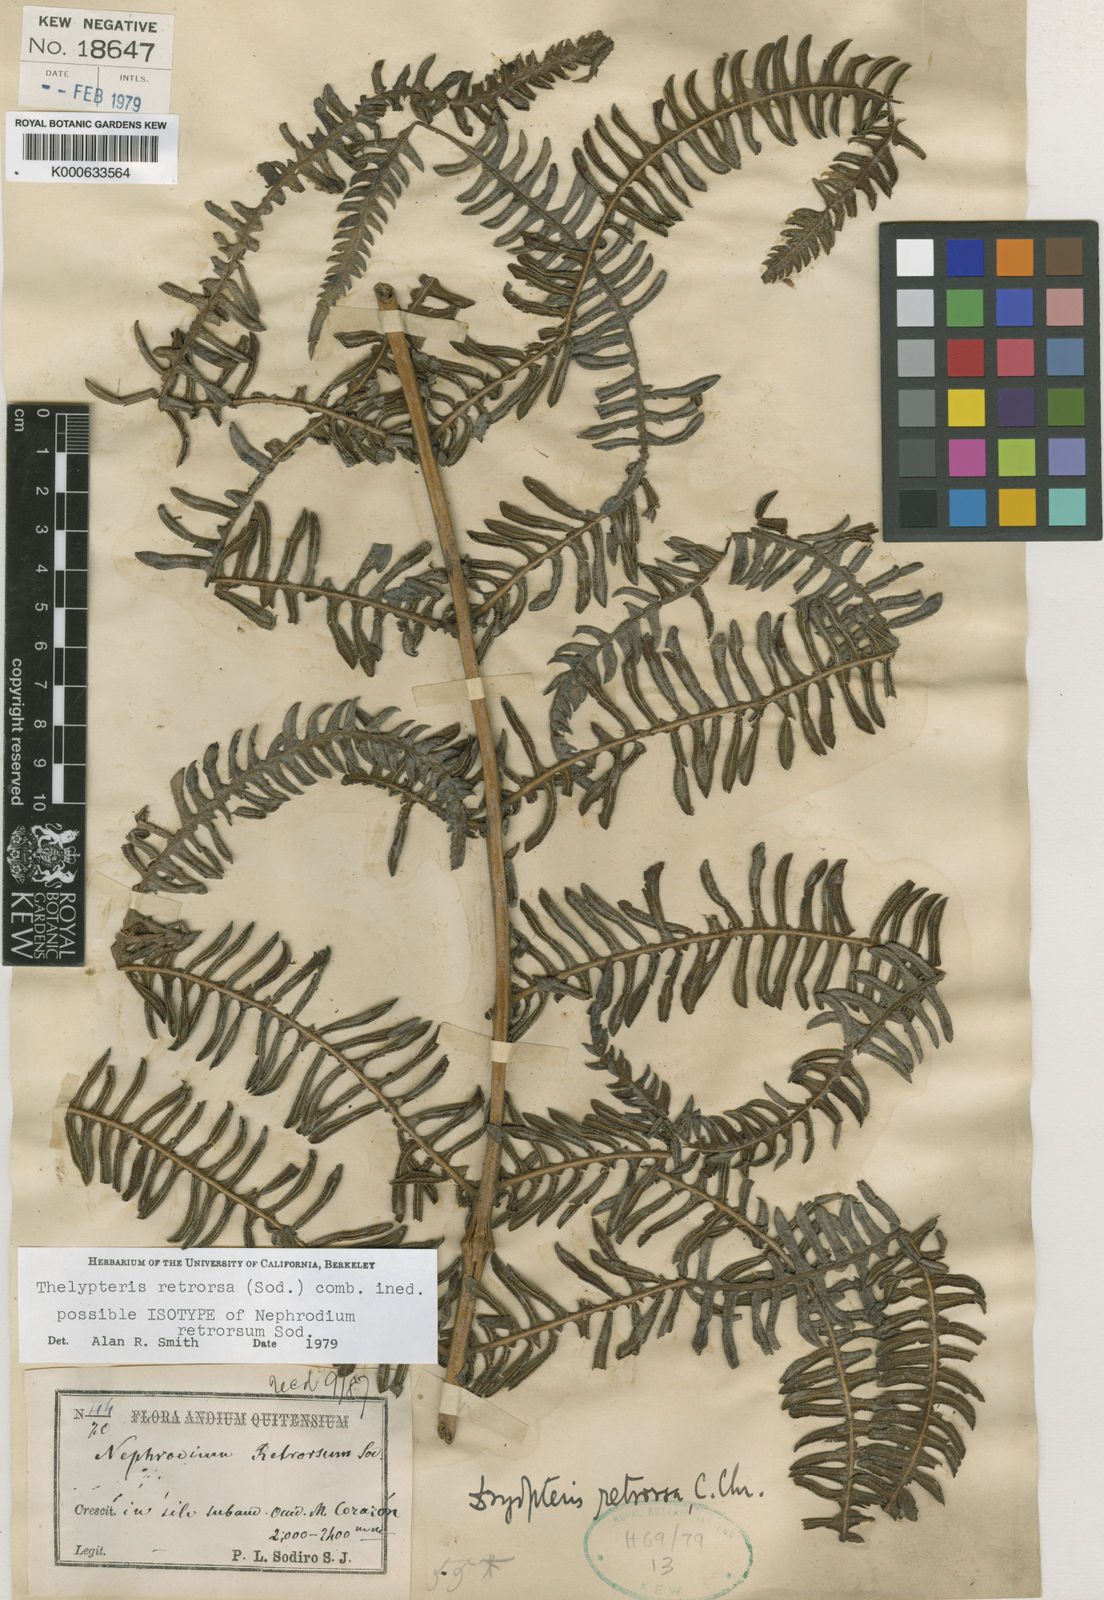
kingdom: Plantae
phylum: Tracheophyta
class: Polypodiopsida
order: Polypodiales
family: Thelypteridaceae
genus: Amauropelta
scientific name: Amauropelta pilosohispida
